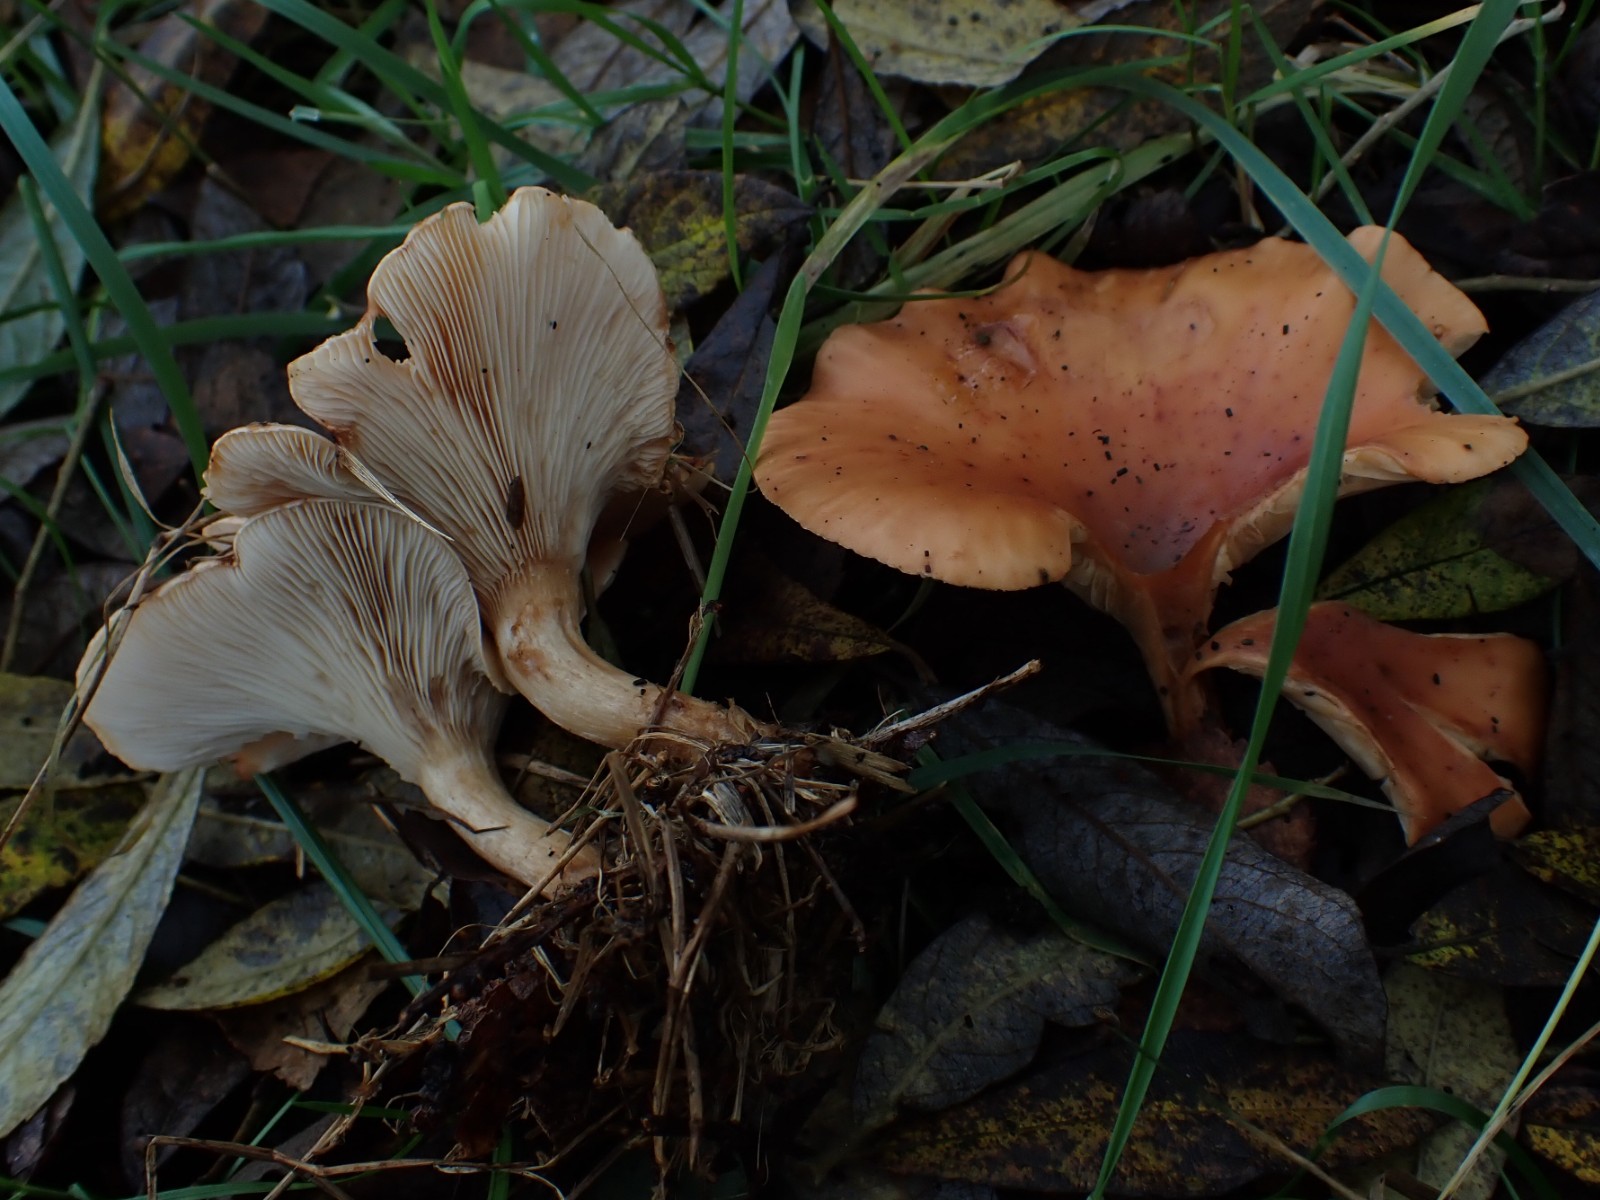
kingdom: Fungi
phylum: Basidiomycota
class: Agaricomycetes
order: Agaricales
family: Tricholomataceae
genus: Paralepista
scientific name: Paralepista flaccida
